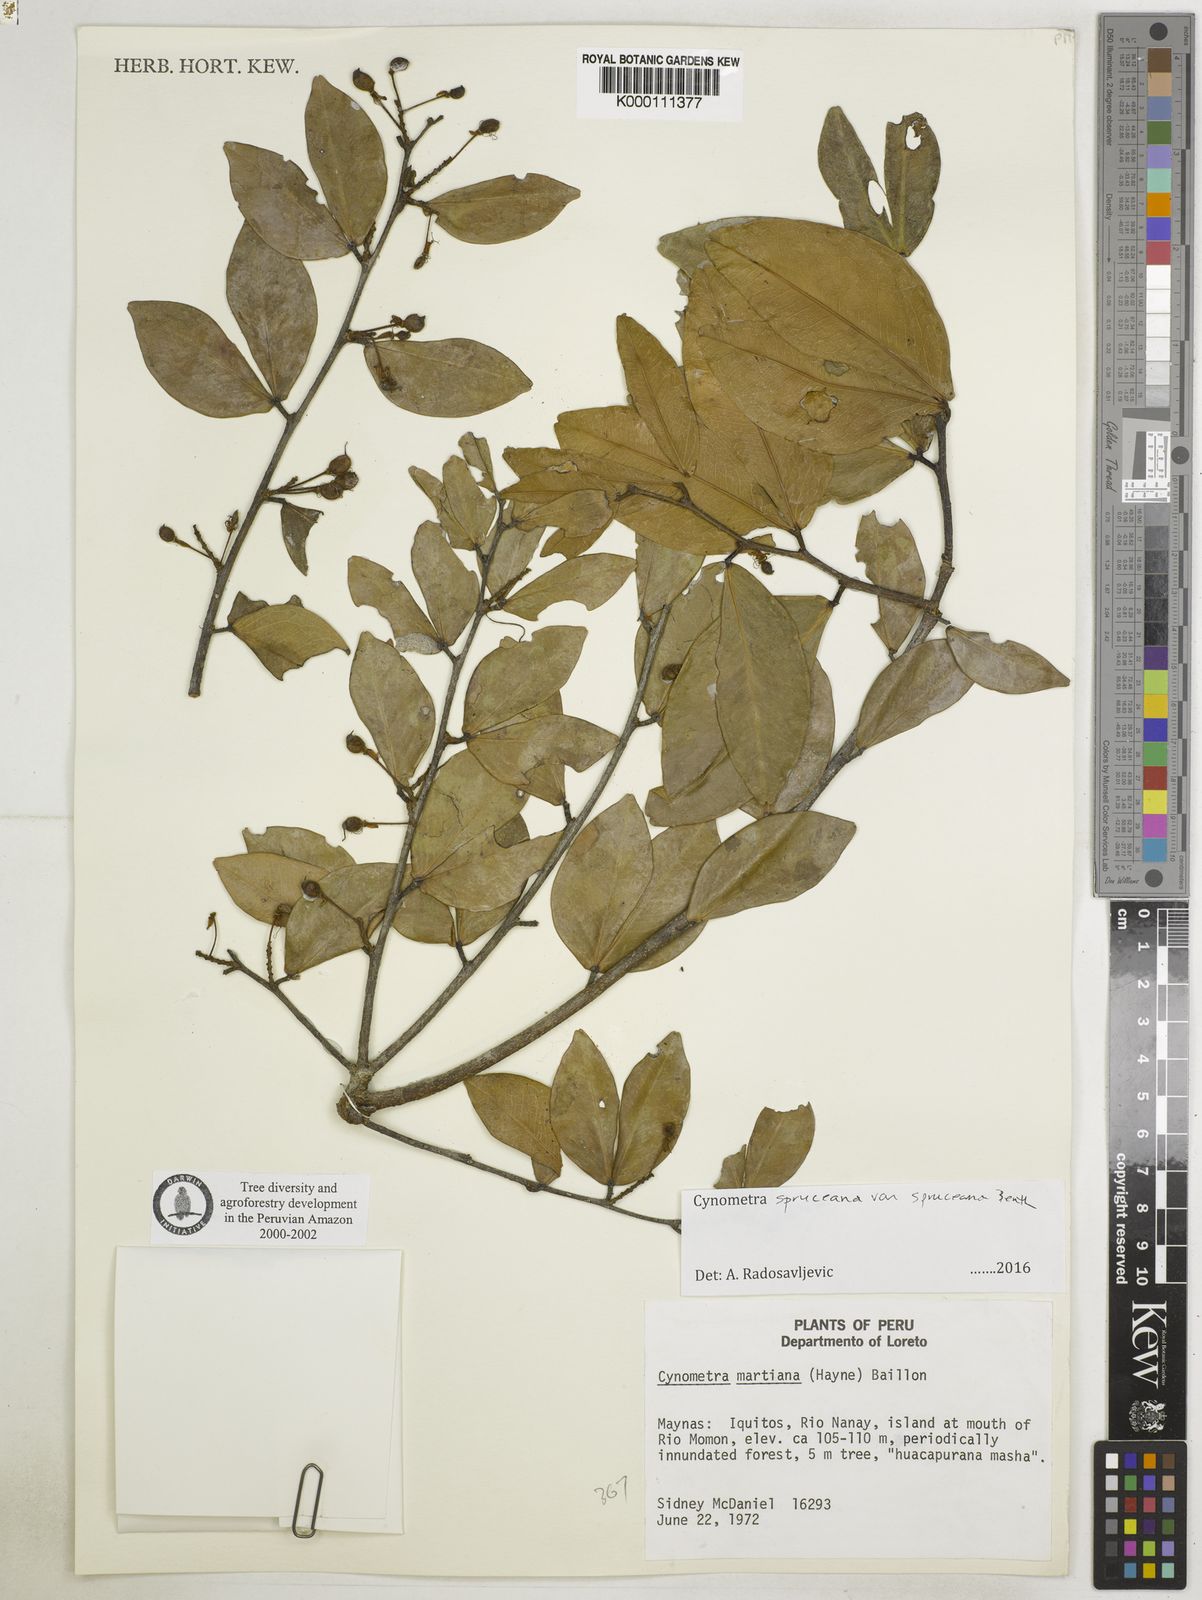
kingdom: Plantae
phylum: Tracheophyta
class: Magnoliopsida
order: Fabales
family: Fabaceae
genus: Cynometra
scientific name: Cynometra phaselocarpa
